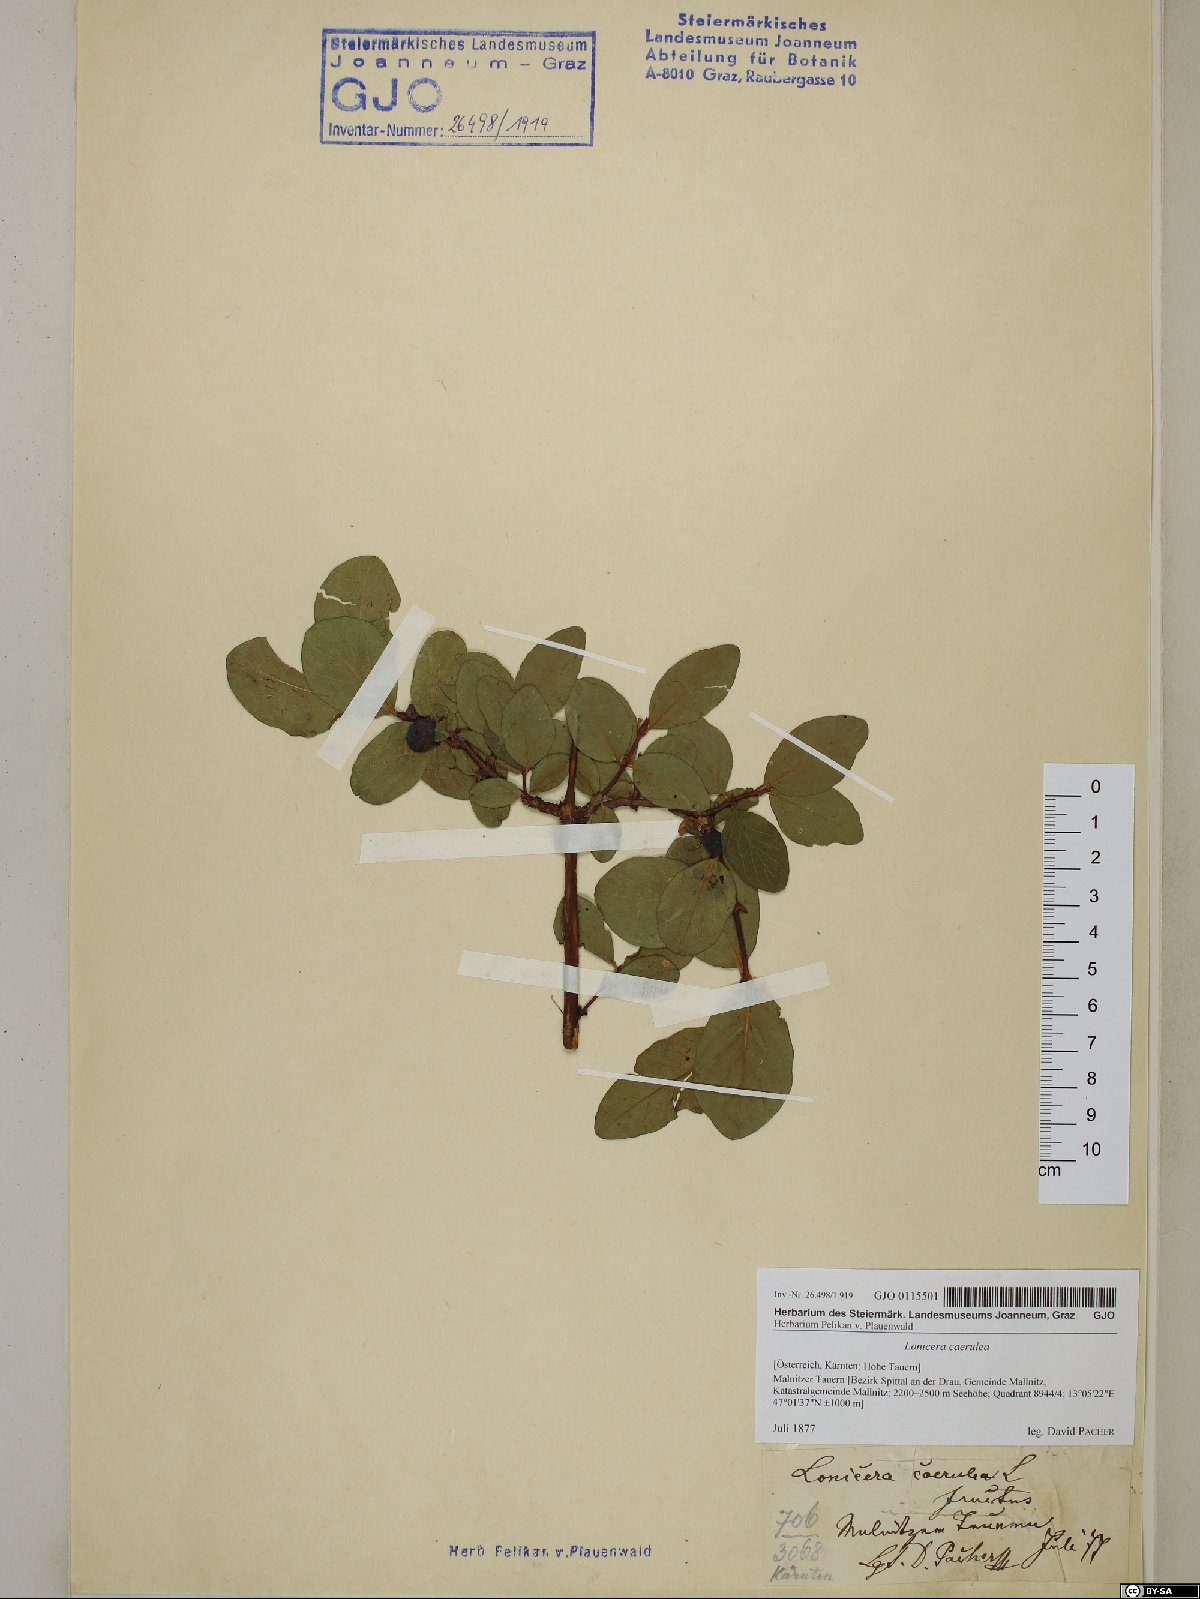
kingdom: Plantae
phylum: Tracheophyta
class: Magnoliopsida
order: Dipsacales
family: Caprifoliaceae
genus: Lonicera
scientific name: Lonicera caerulea
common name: Blue honeysuckle
